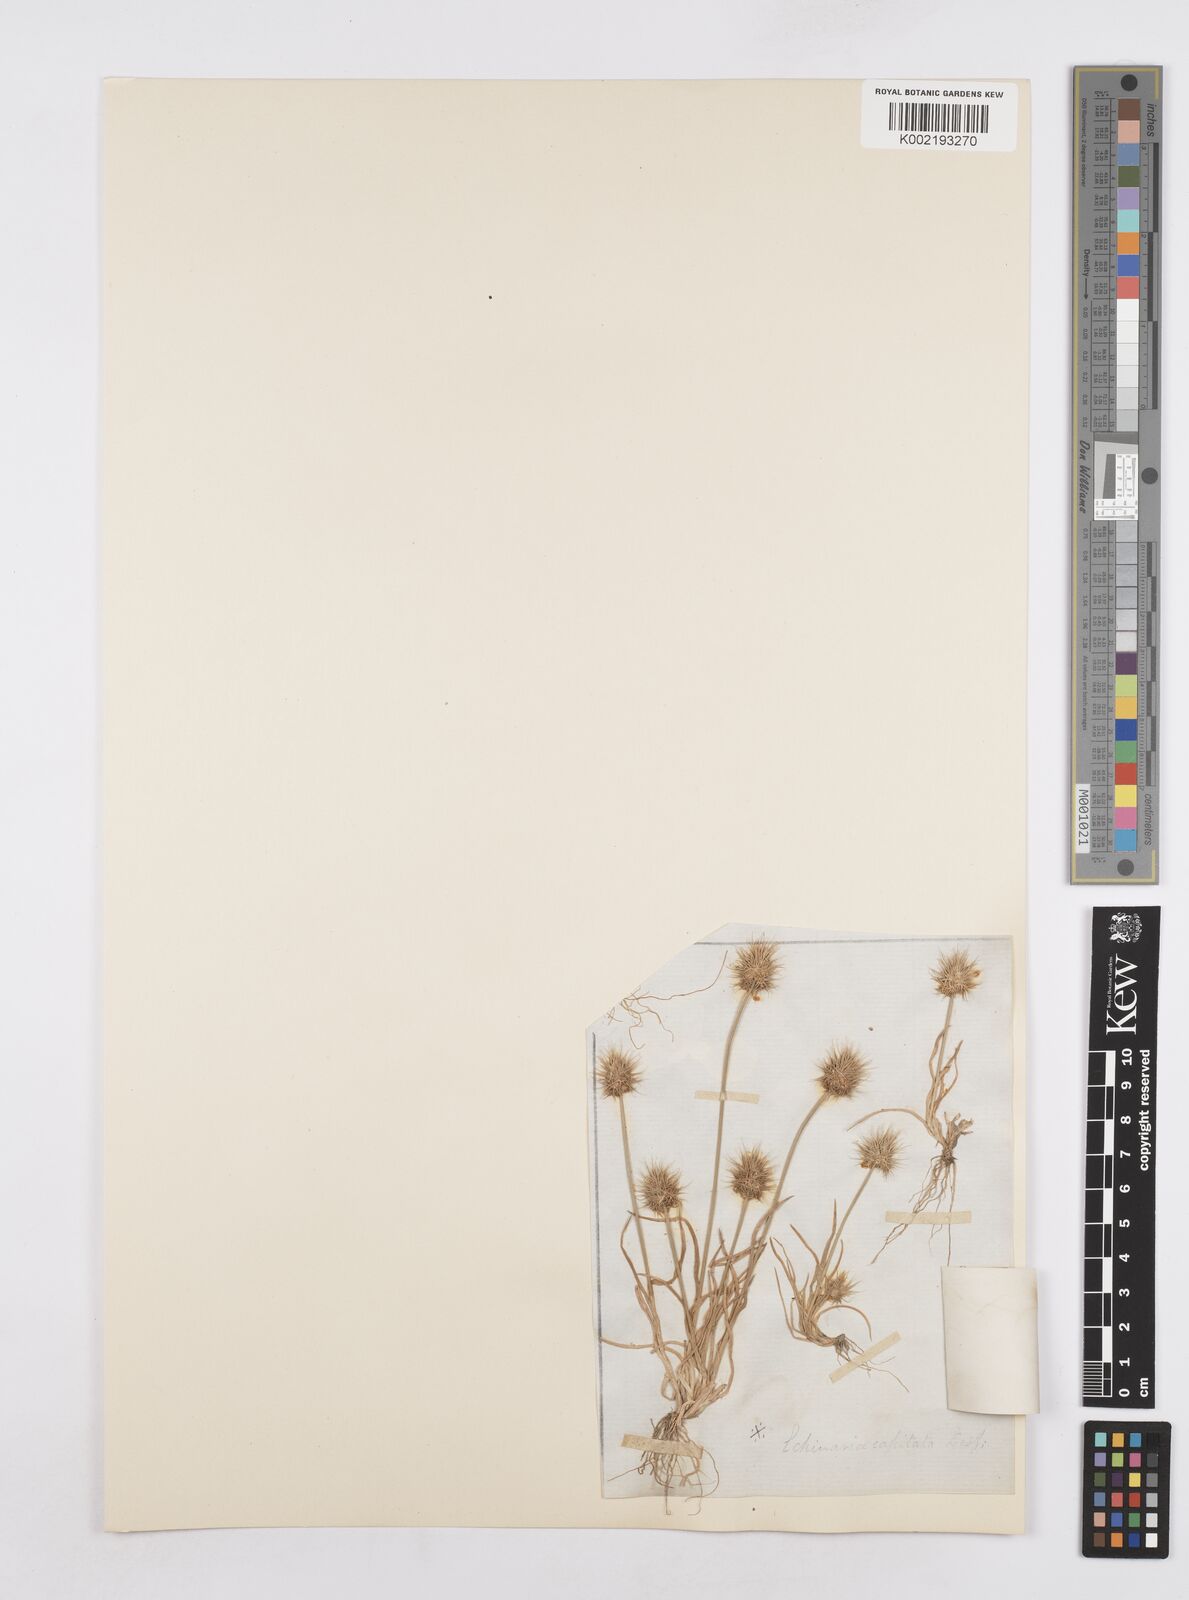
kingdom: Plantae
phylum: Tracheophyta
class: Liliopsida
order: Poales
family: Poaceae
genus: Echinaria
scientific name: Echinaria capitata
